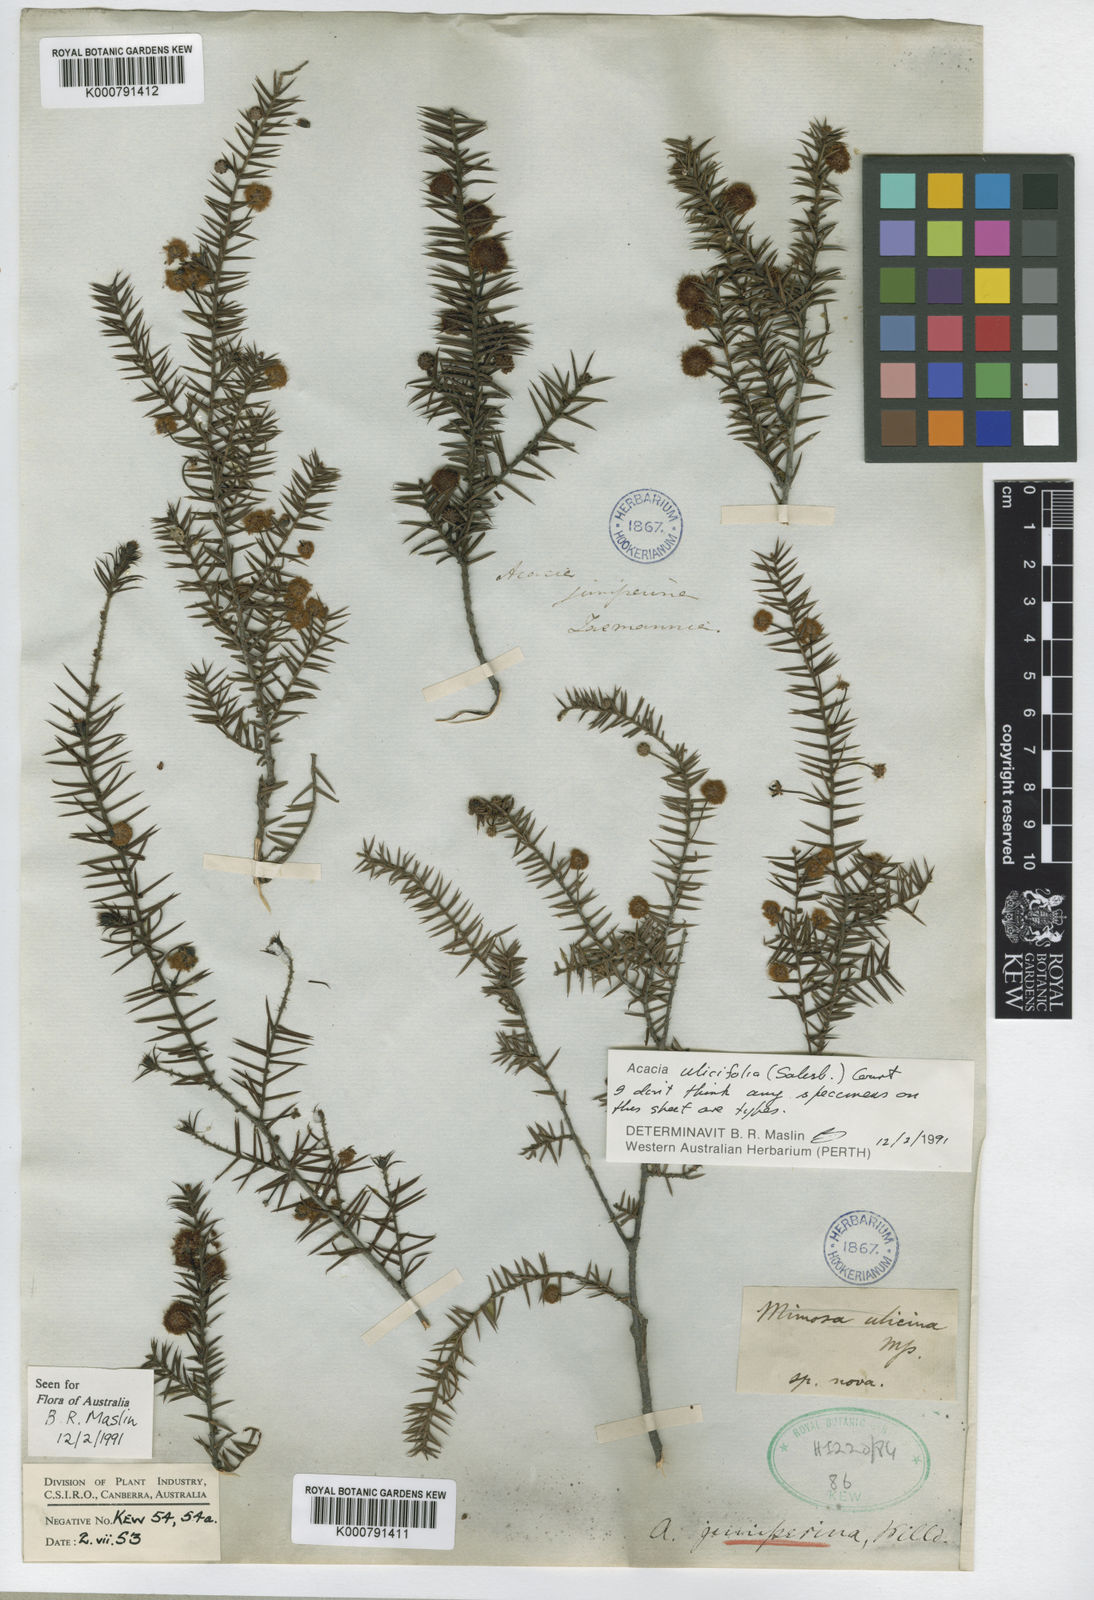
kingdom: Plantae
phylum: Tracheophyta
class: Magnoliopsida
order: Fabales
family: Fabaceae
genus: Acacia
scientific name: Acacia ulicifolia
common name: Juniper wattle
